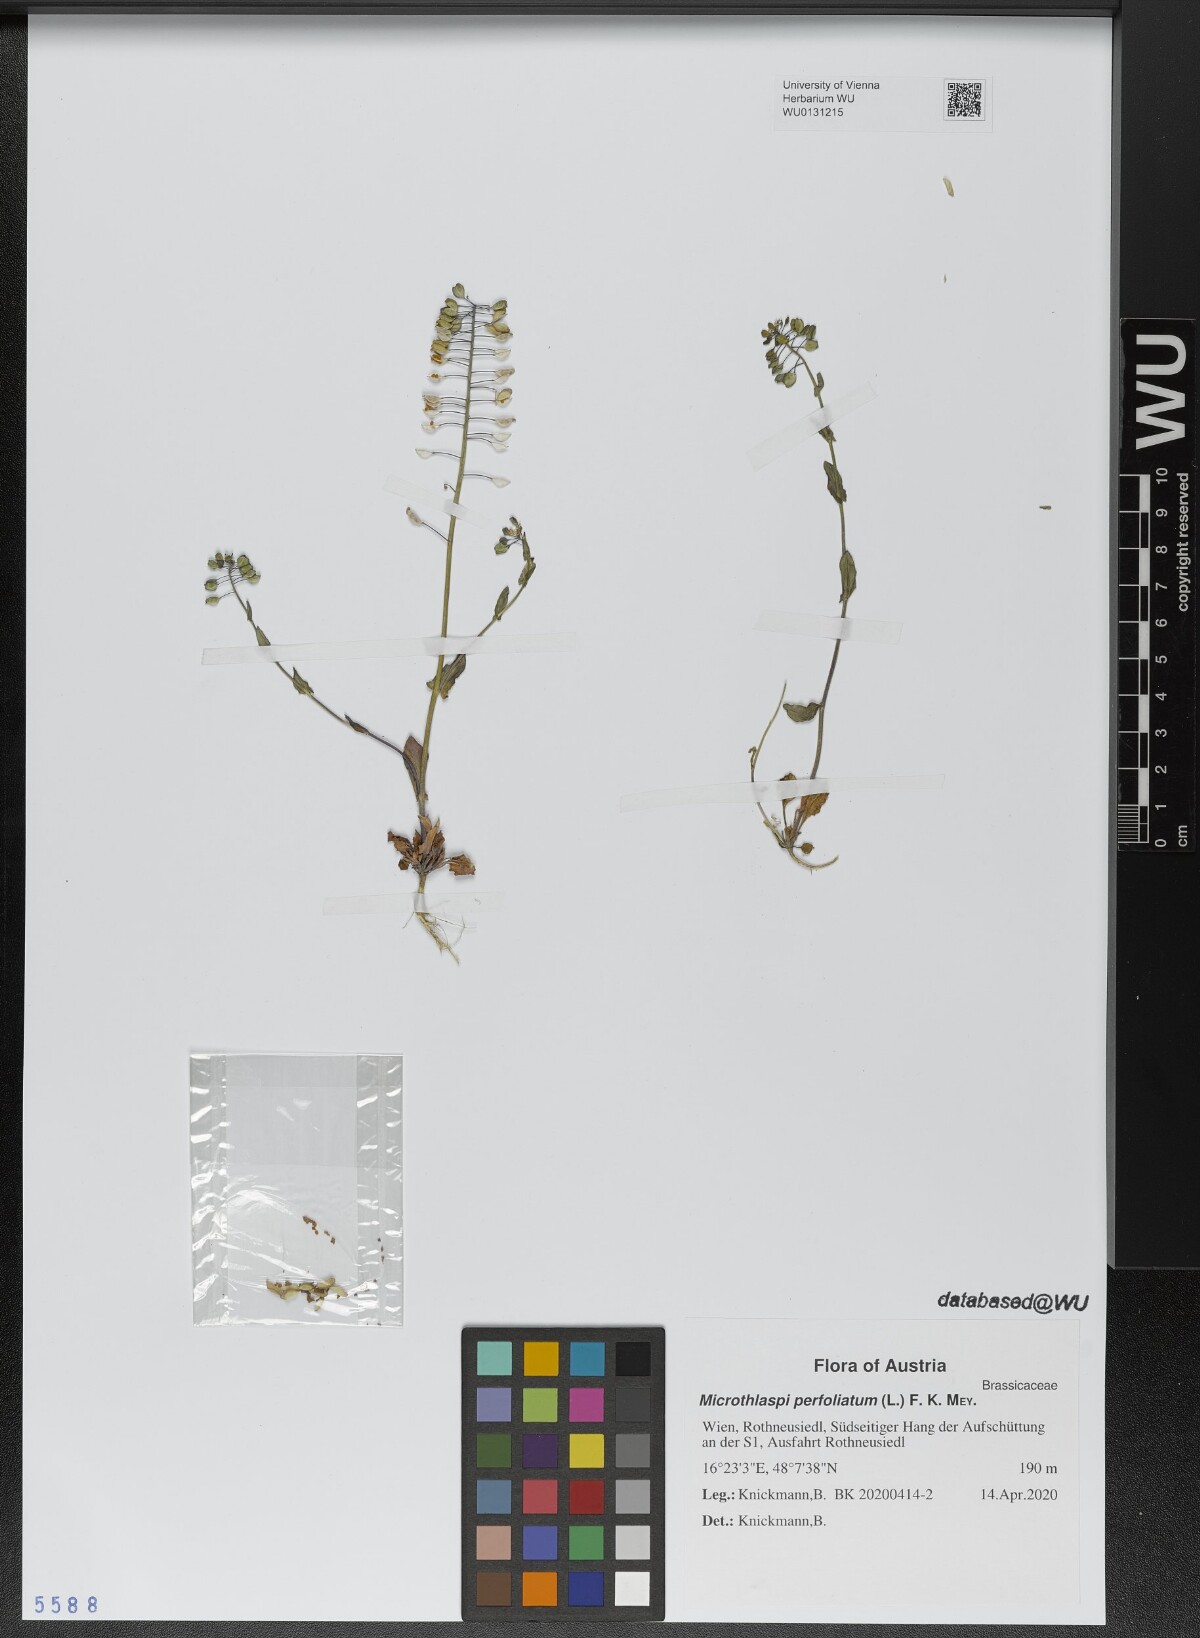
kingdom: Plantae
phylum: Tracheophyta
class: Magnoliopsida
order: Brassicales
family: Brassicaceae
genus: Noccaea
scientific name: Noccaea perfoliata
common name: Perfoliate pennycress
